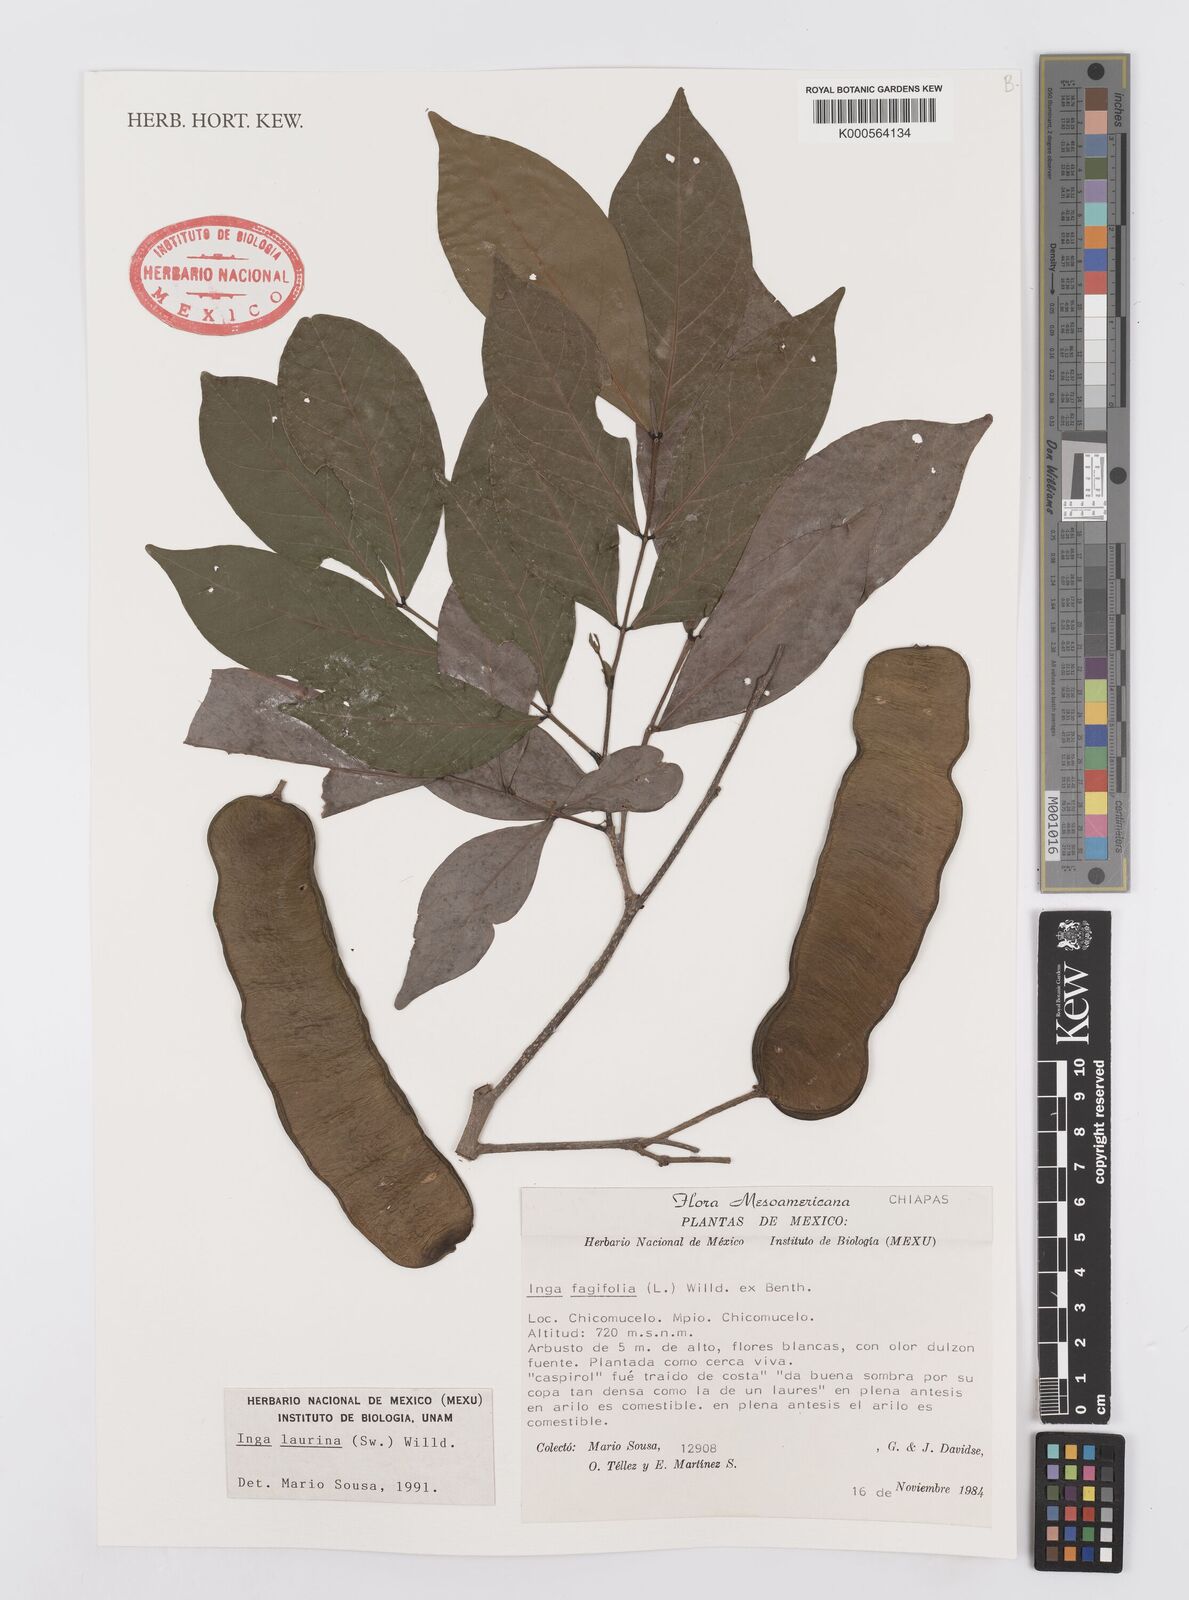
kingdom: Plantae
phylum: Tracheophyta
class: Magnoliopsida
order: Fabales
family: Fabaceae
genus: Inga
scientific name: Inga laurina
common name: Red wood
